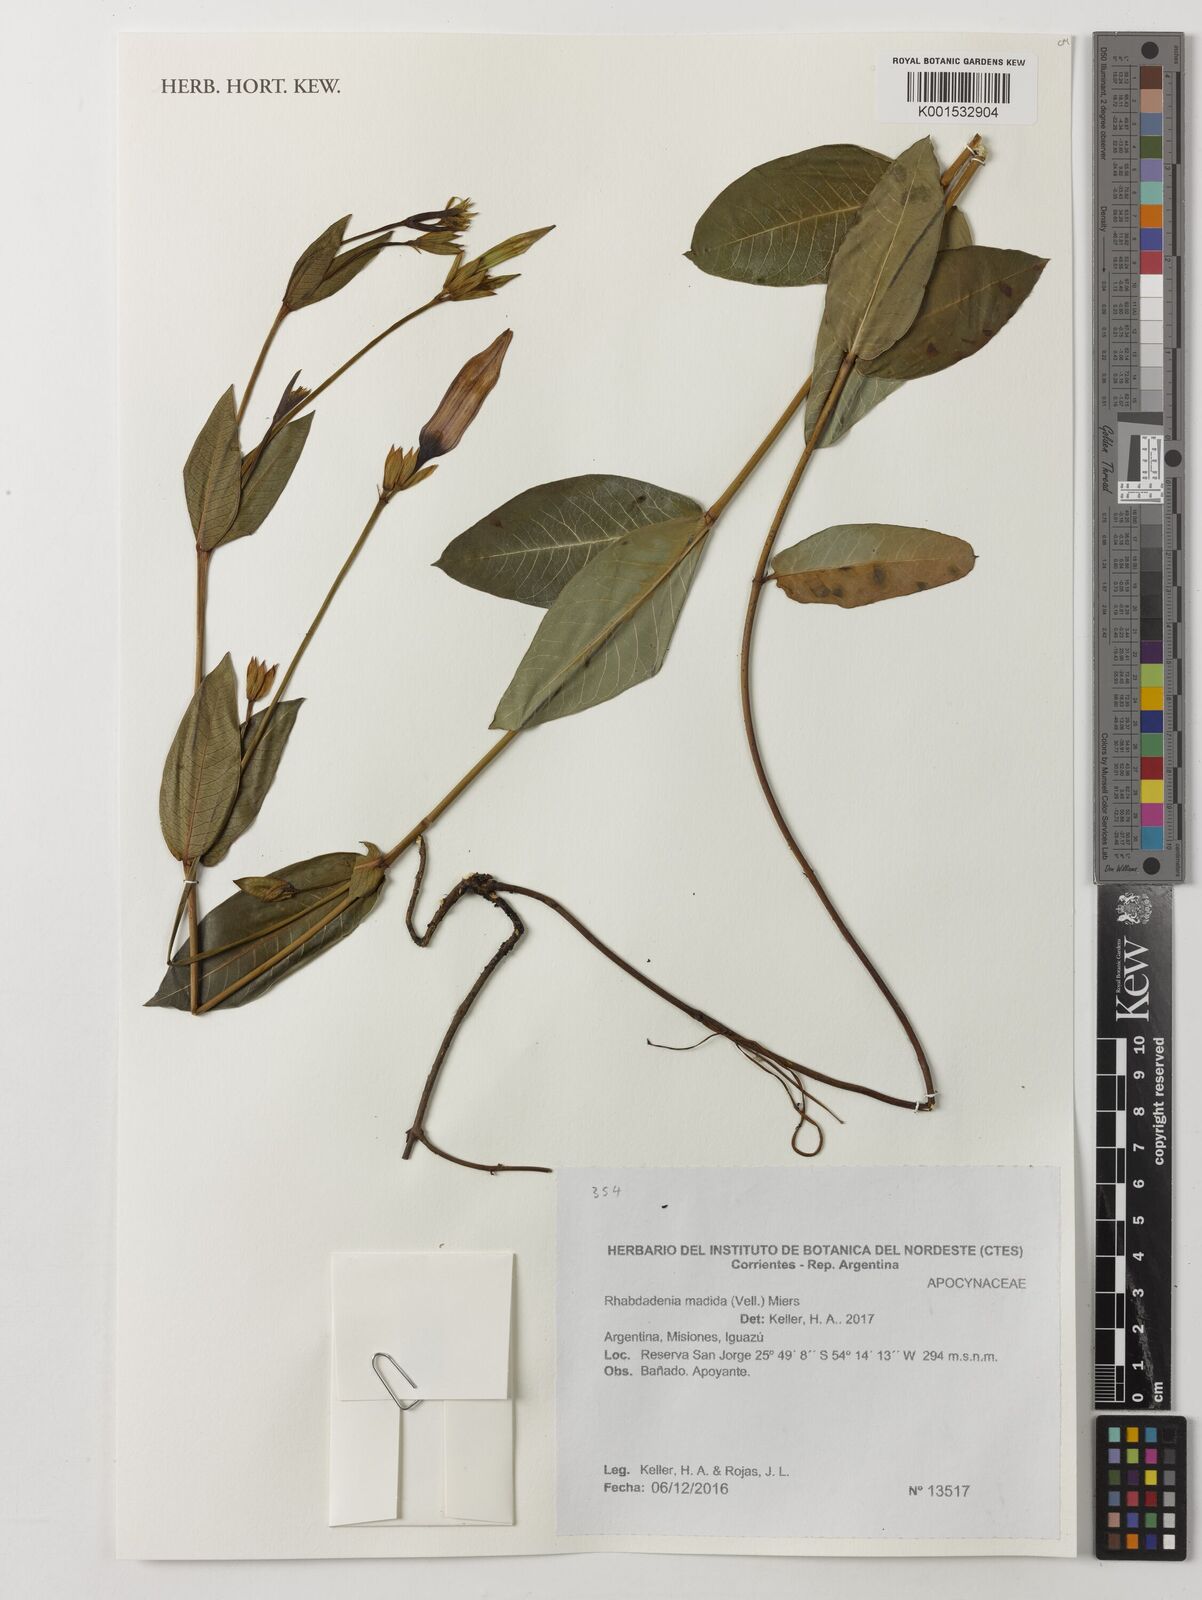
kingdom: Plantae
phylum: Tracheophyta
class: Magnoliopsida
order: Gentianales
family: Apocynaceae
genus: Rhabdadenia
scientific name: Rhabdadenia madida
